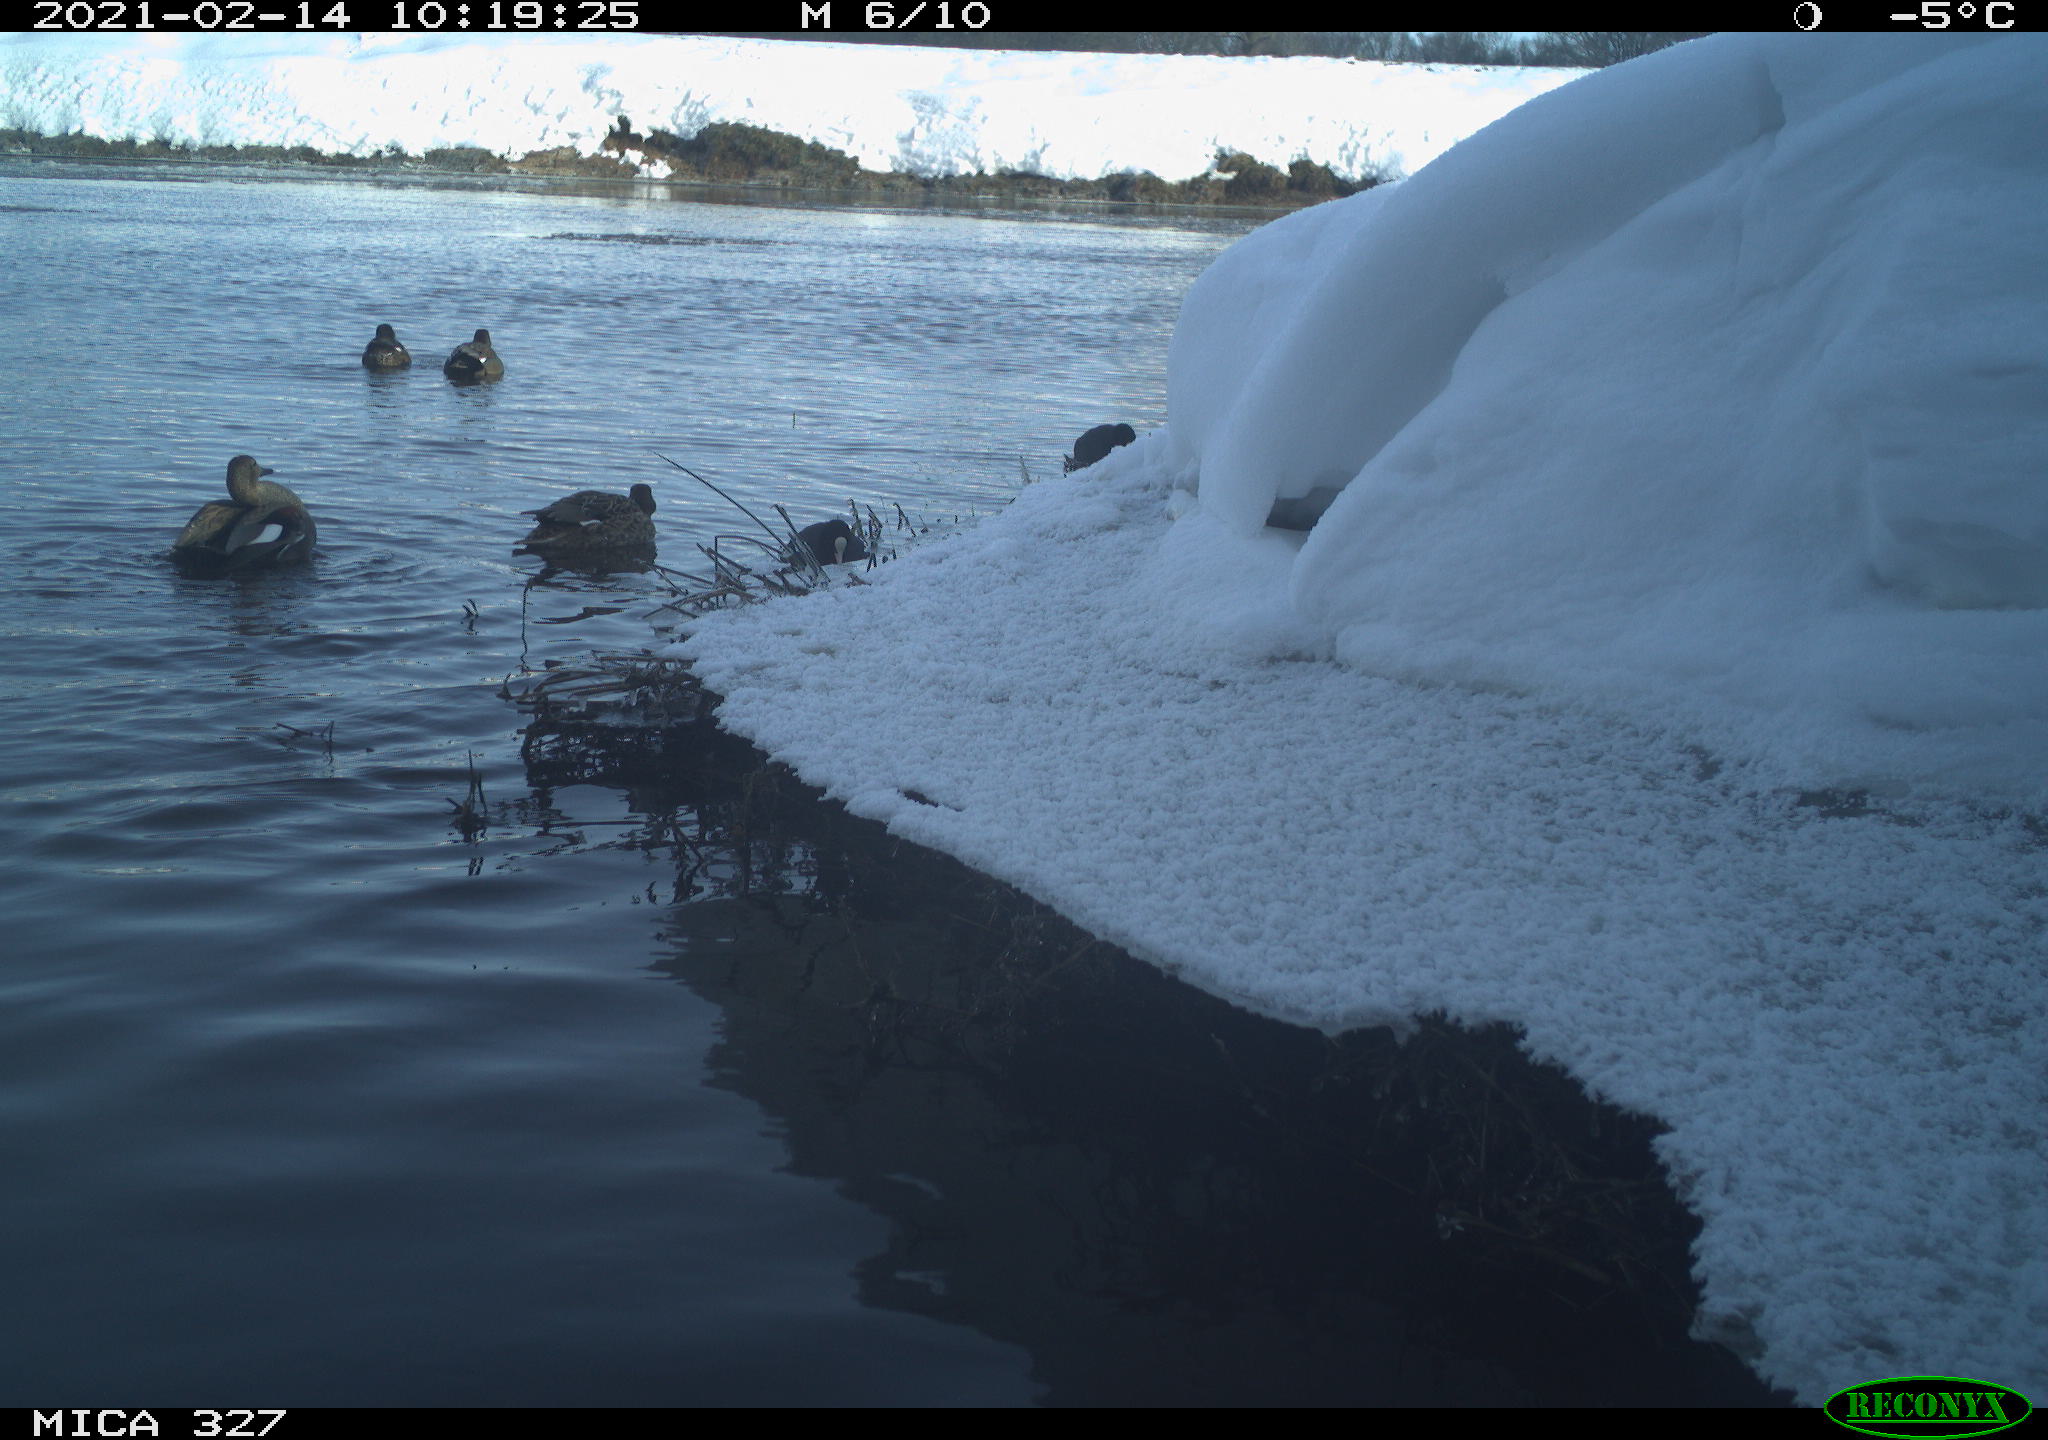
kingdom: Animalia
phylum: Chordata
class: Aves
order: Anseriformes
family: Anatidae
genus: Anas
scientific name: Anas
